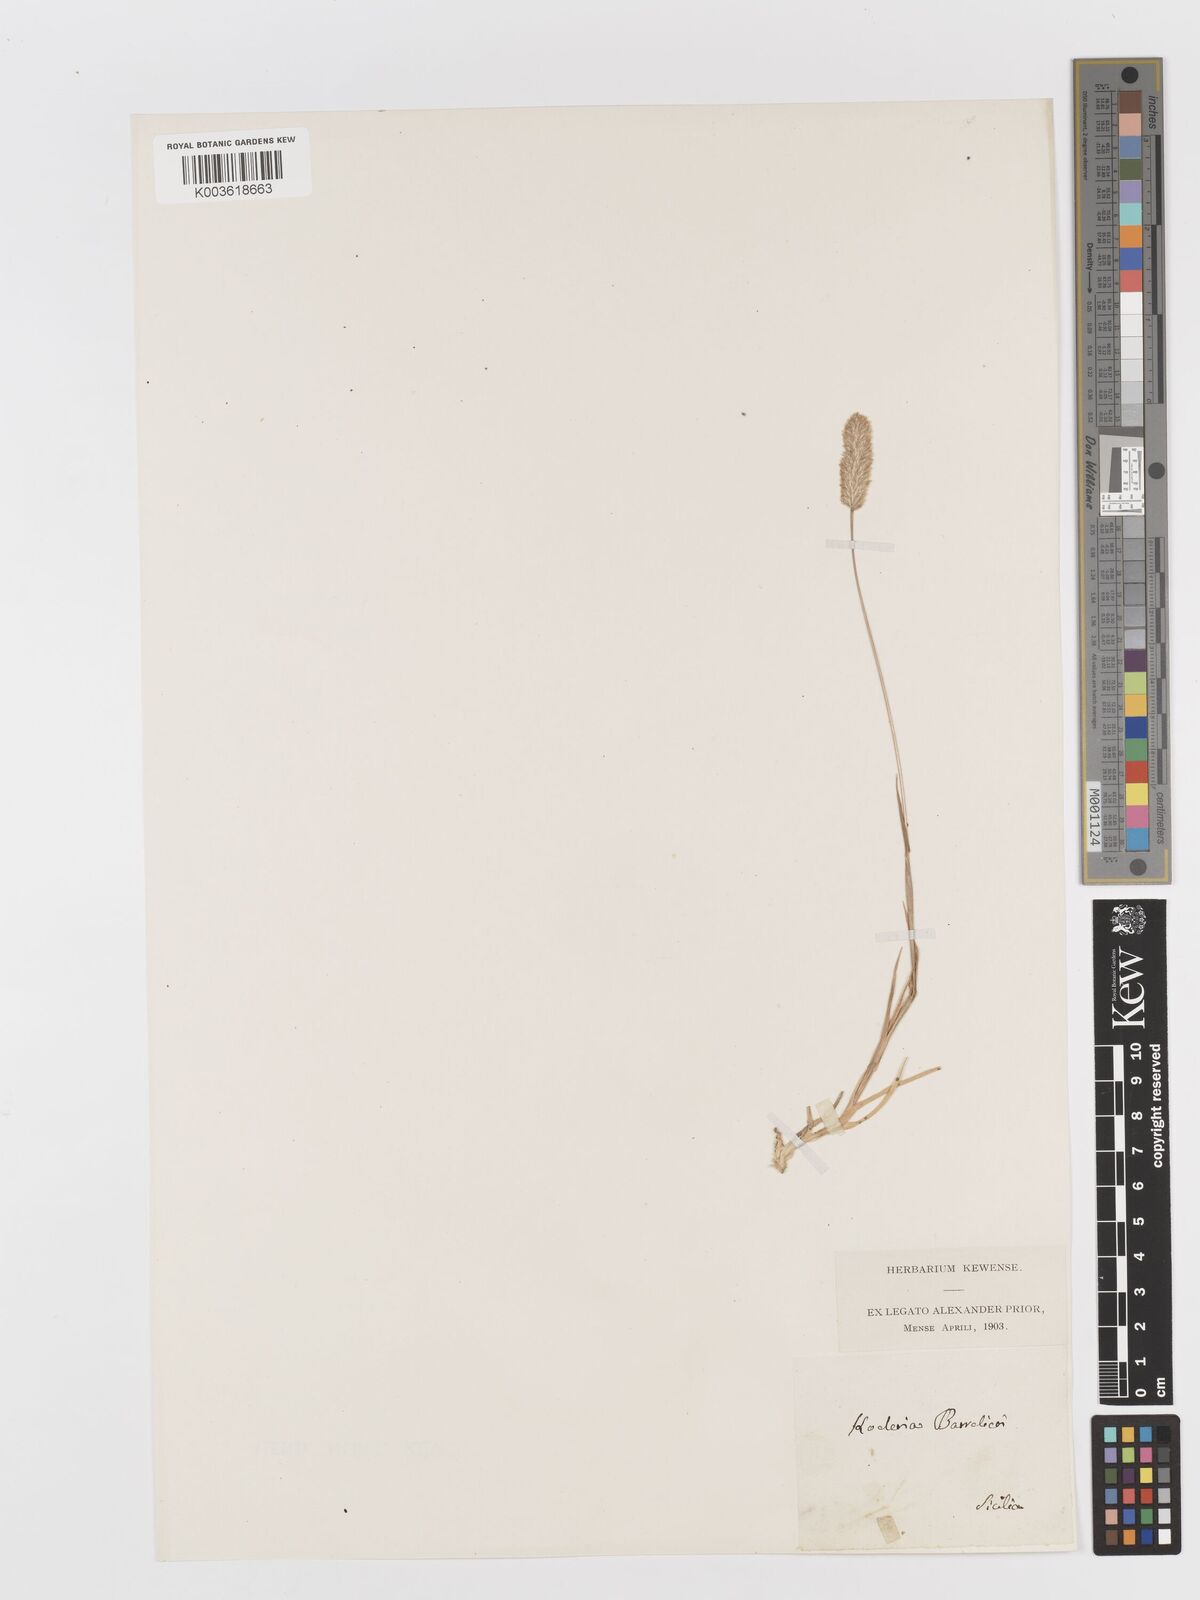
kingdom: Plantae
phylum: Tracheophyta
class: Liliopsida
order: Poales
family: Poaceae
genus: Rostraria
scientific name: Rostraria
